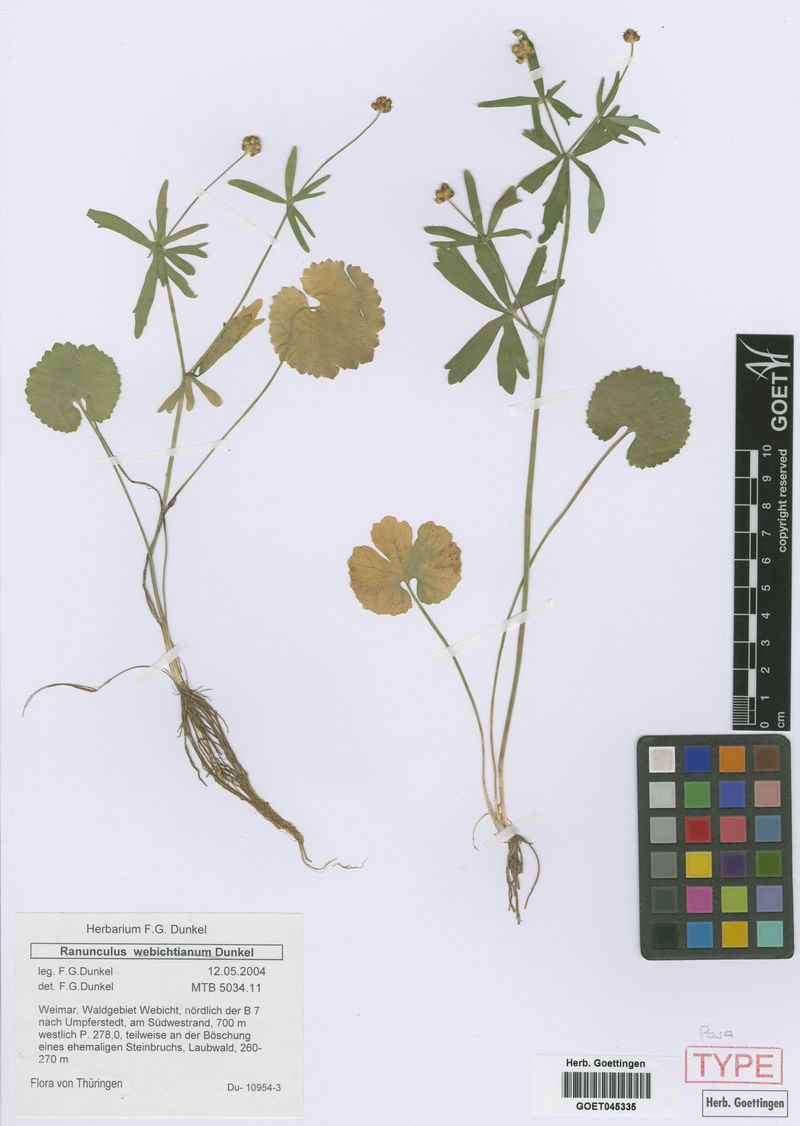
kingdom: Plantae
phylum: Tracheophyta
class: Magnoliopsida
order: Ranunculales
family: Ranunculaceae
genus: Ranunculus
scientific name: Ranunculus
